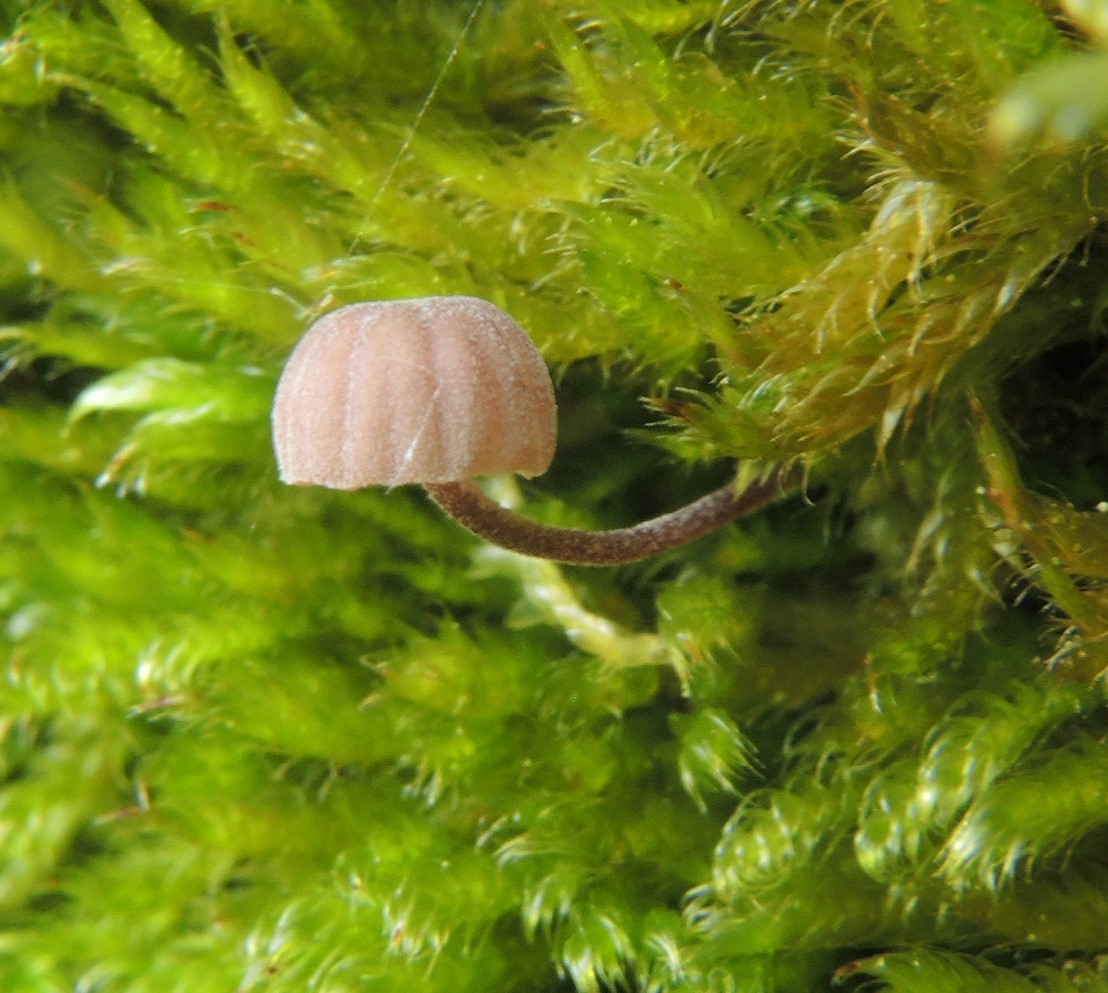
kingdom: Fungi
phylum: Basidiomycota
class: Agaricomycetes
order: Agaricales
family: Mycenaceae
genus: Mycena
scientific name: Mycena meliigena
